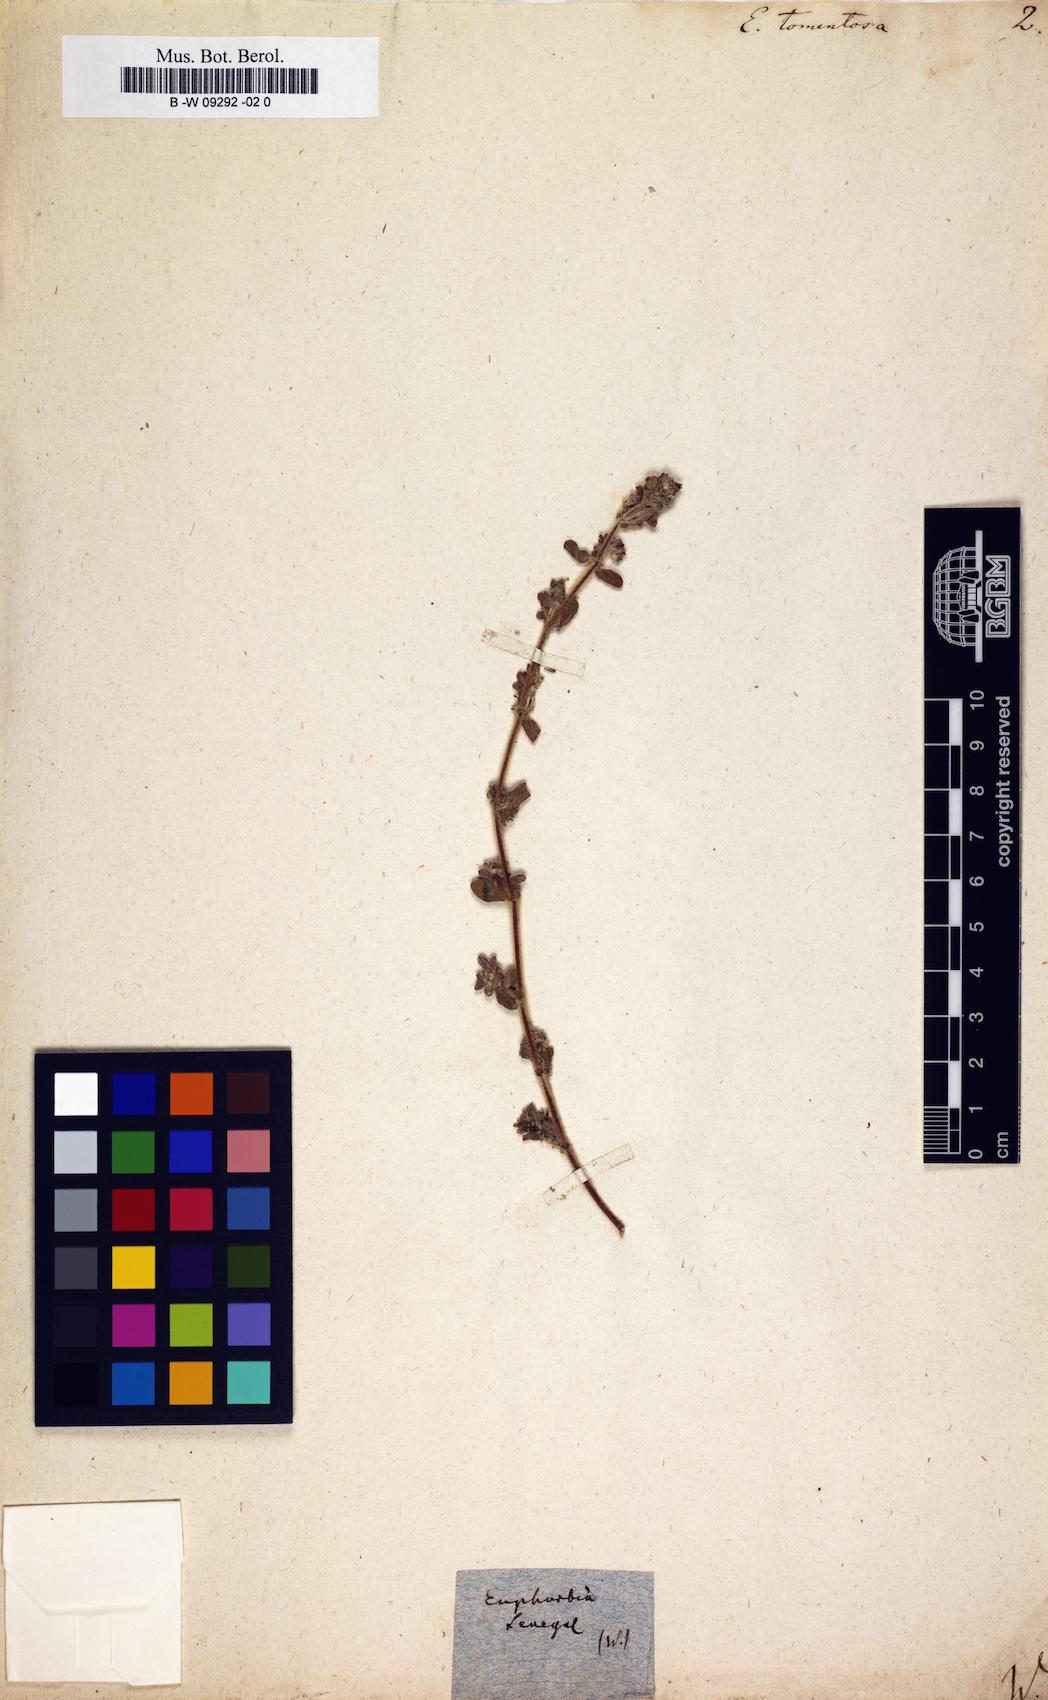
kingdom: Plantae
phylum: Tracheophyta
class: Magnoliopsida
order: Malpighiales
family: Euphorbiaceae
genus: Euphorbia
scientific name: Euphorbia scordiifolia
